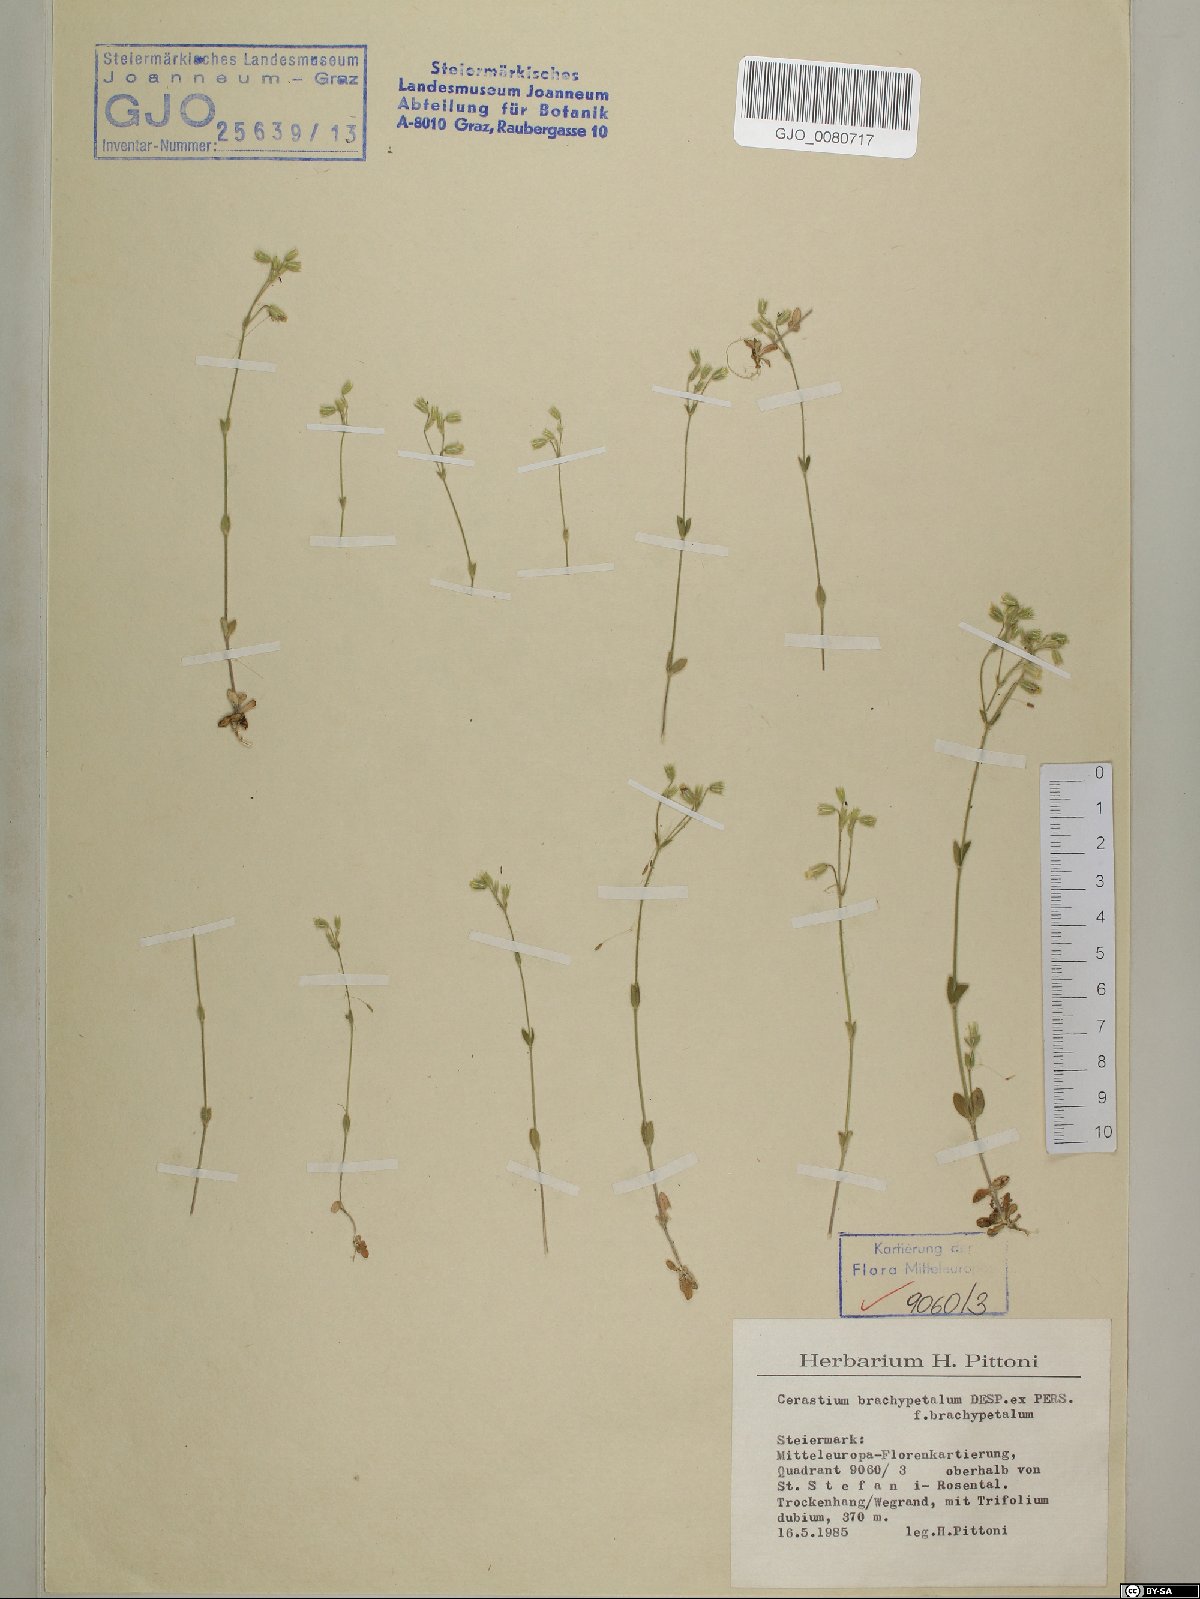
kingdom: Plantae
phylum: Tracheophyta
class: Magnoliopsida
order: Caryophyllales
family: Caryophyllaceae
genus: Cerastium
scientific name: Cerastium brachypetalum
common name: Grey mouse-ear
